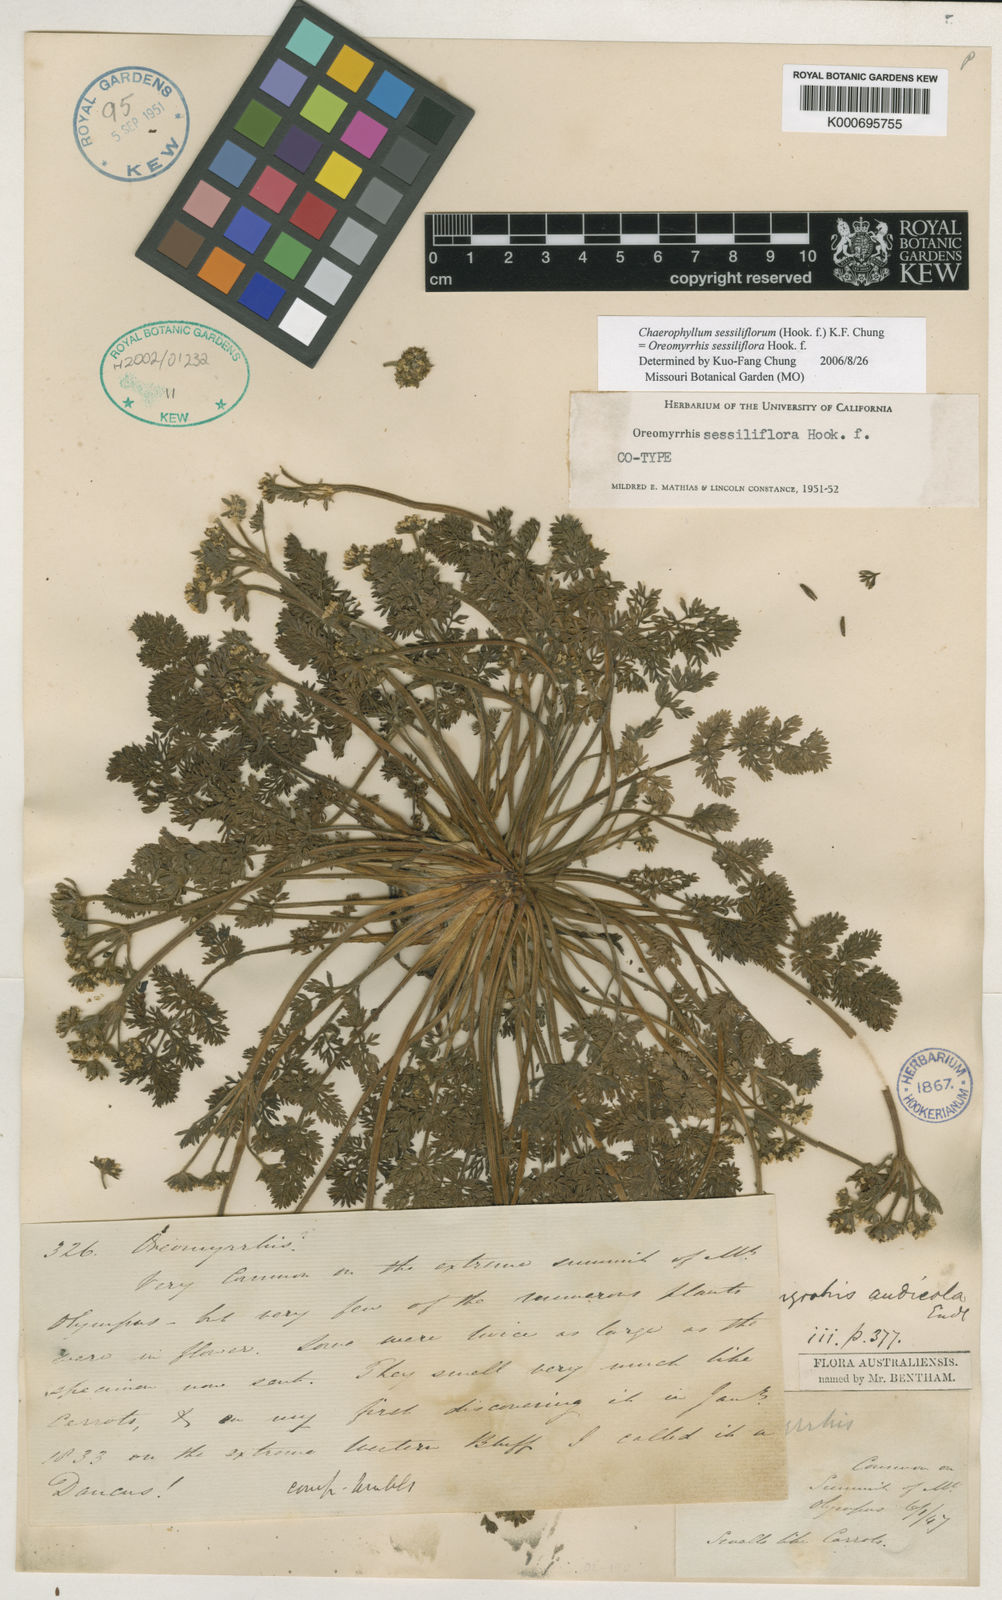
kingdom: Plantae
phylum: Tracheophyta
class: Magnoliopsida
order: Apiales
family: Apiaceae
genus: Chaerophyllum
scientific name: Chaerophyllum sessiliflorum
